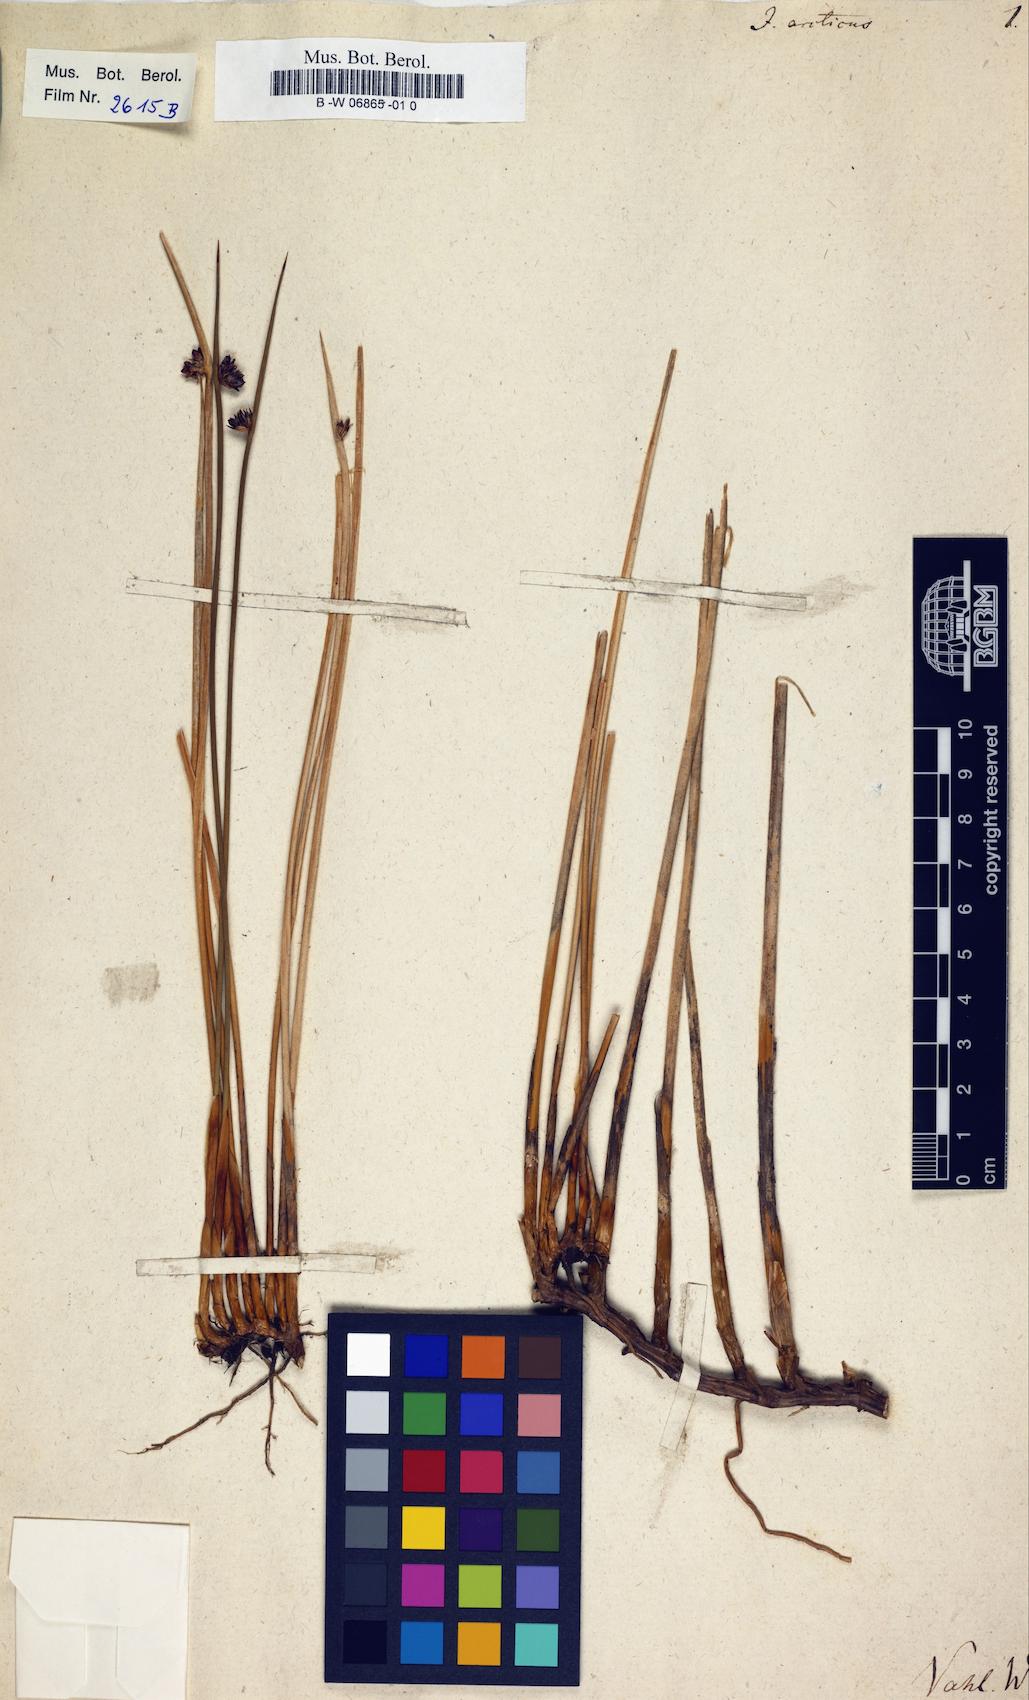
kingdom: Plantae
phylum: Tracheophyta
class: Liliopsida
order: Poales
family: Juncaceae
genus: Juncus
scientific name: Juncus arcticus
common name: Arctic rush
